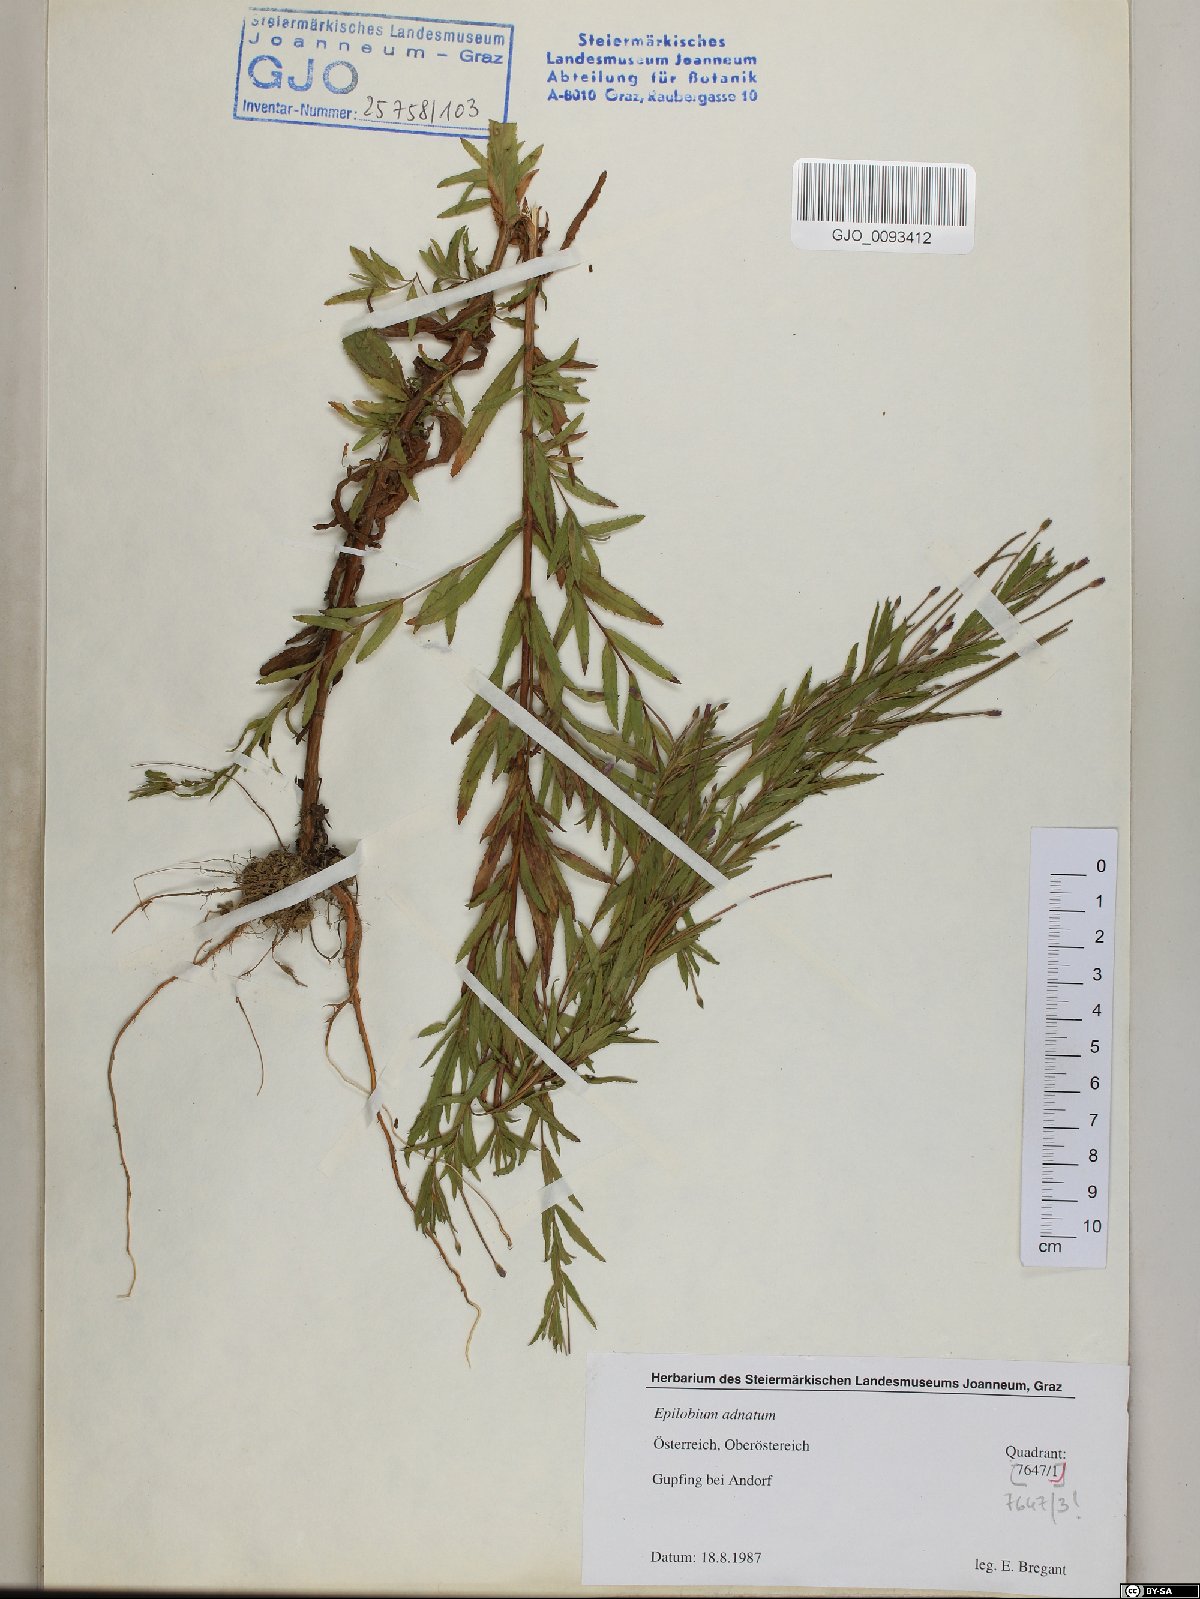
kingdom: Plantae
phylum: Tracheophyta
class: Magnoliopsida
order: Myrtales
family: Onagraceae
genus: Epilobium
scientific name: Epilobium tetragonum
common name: Square-stemmed willowherb
